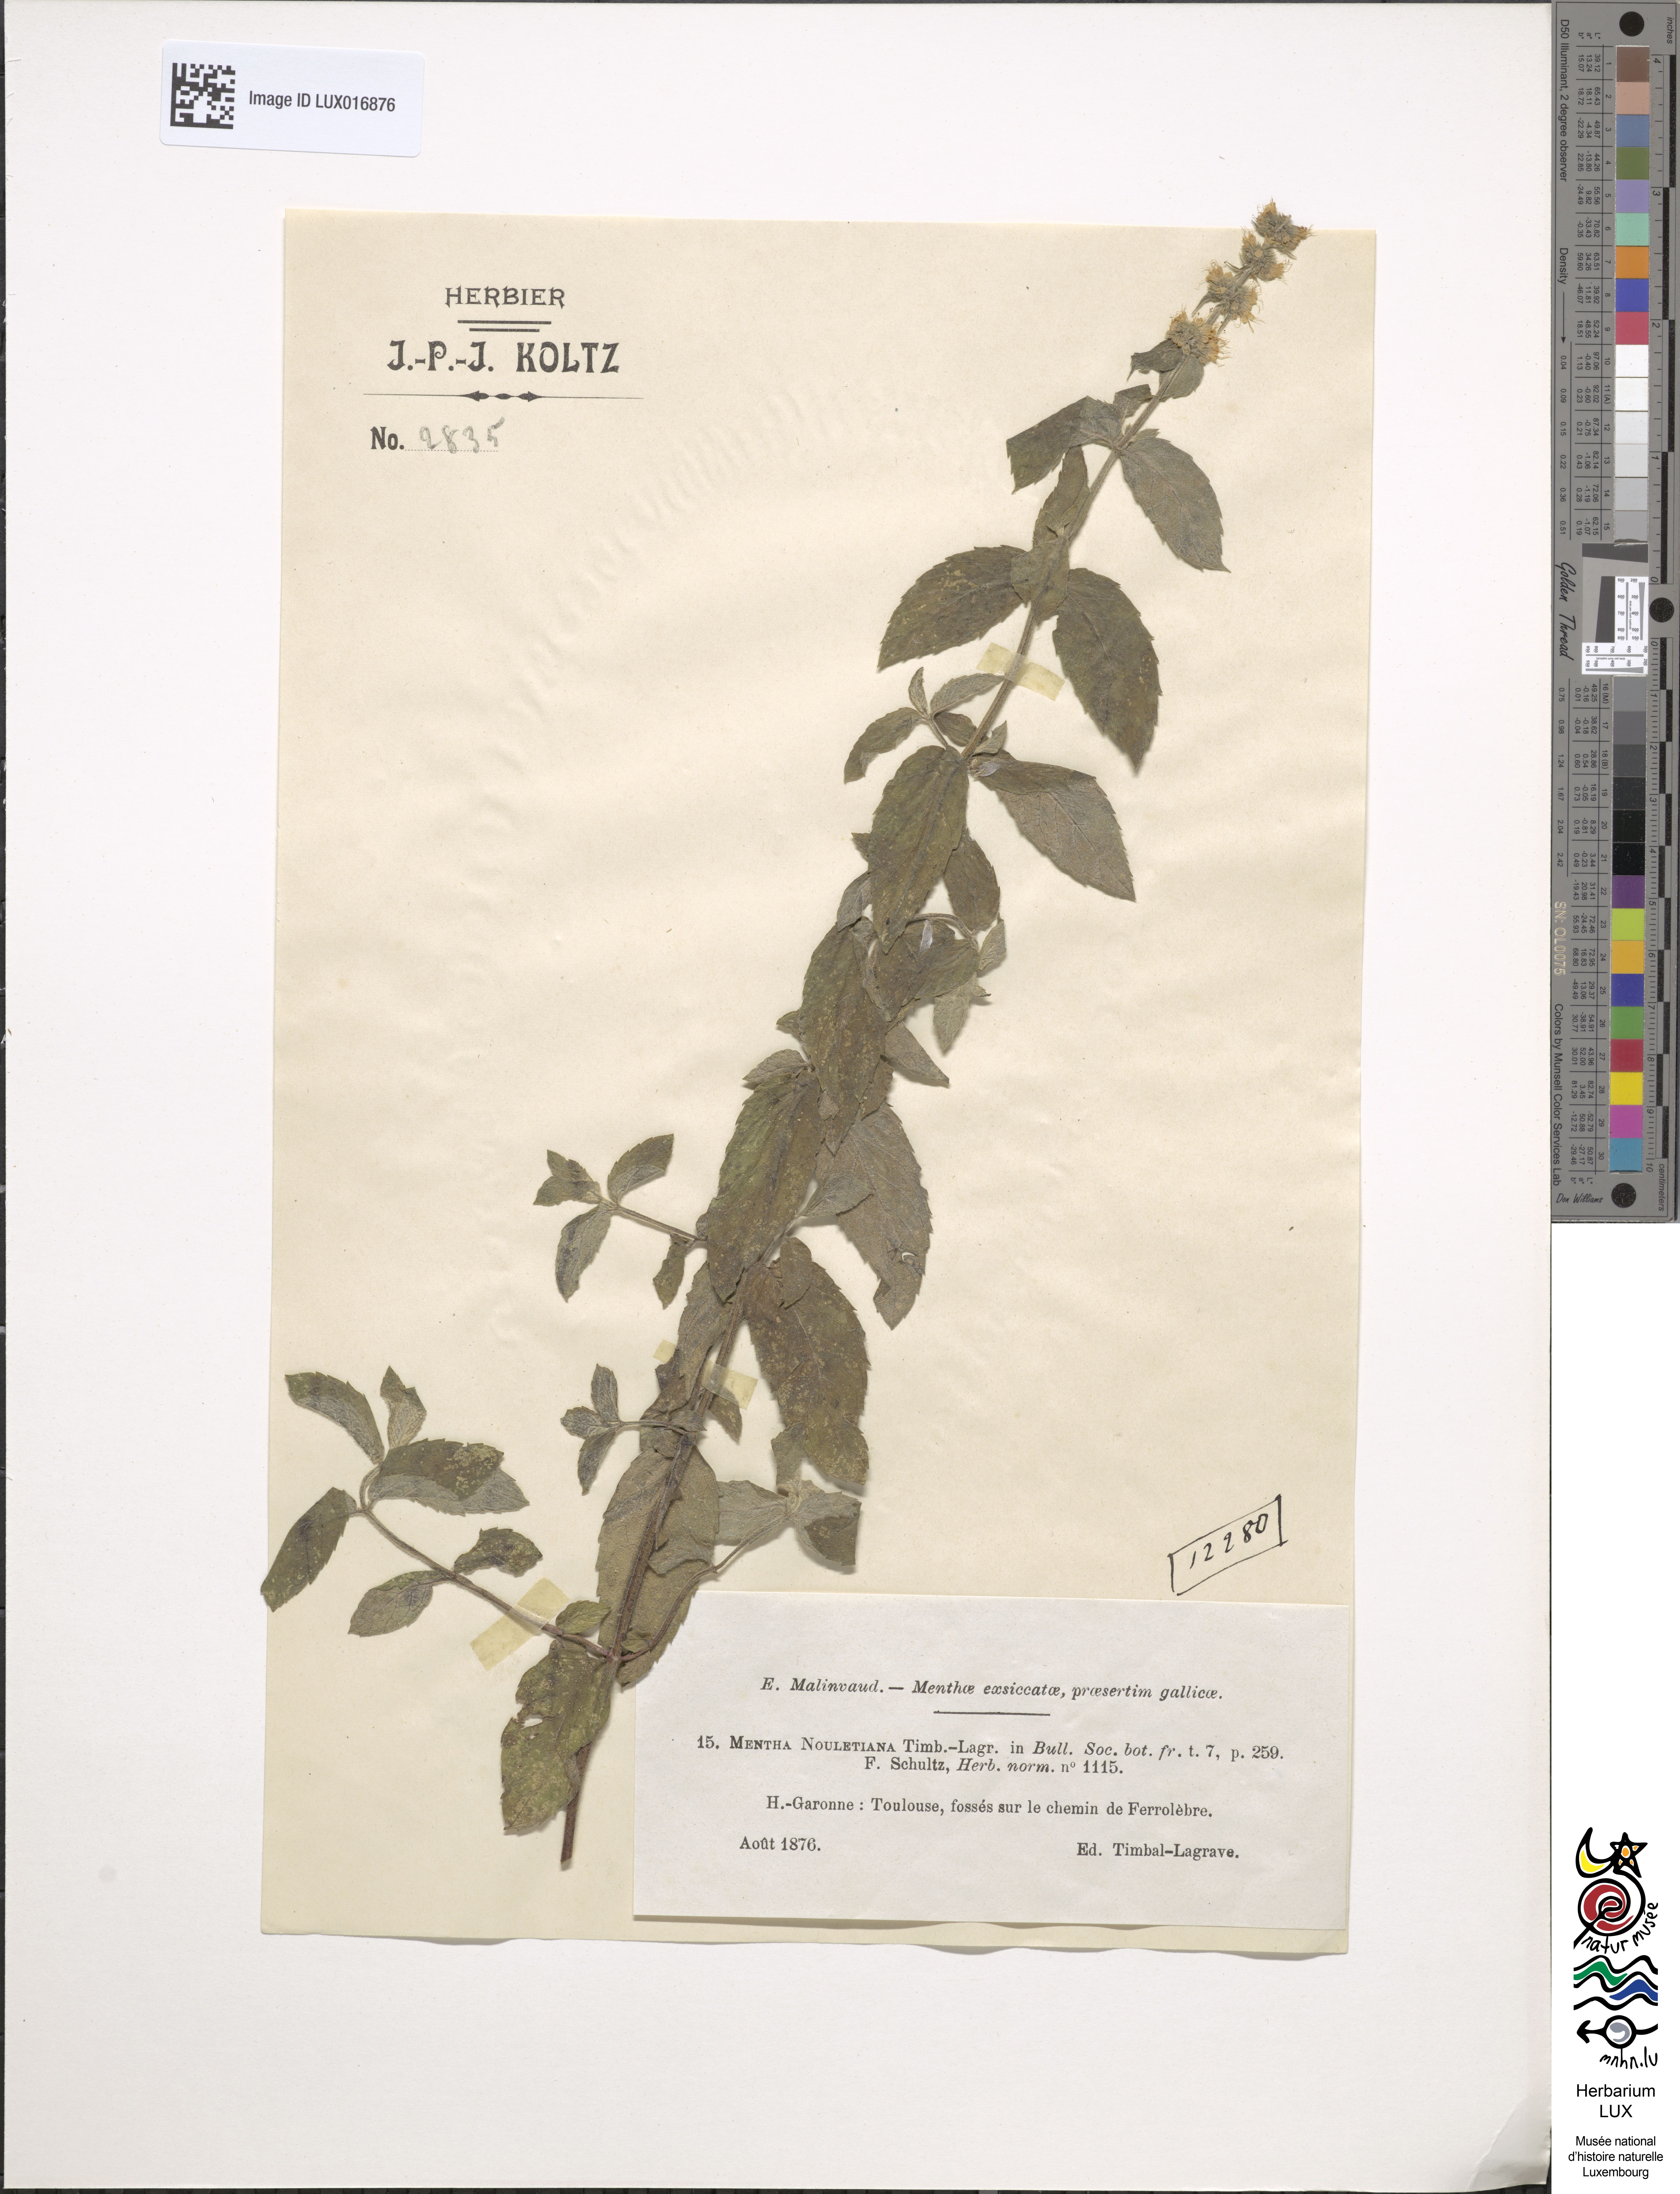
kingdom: Plantae
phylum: Tracheophyta
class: Magnoliopsida
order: Lamiales
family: Lamiaceae
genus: Mentha
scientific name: Mentha rotundifolia
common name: Bigleaf mint
